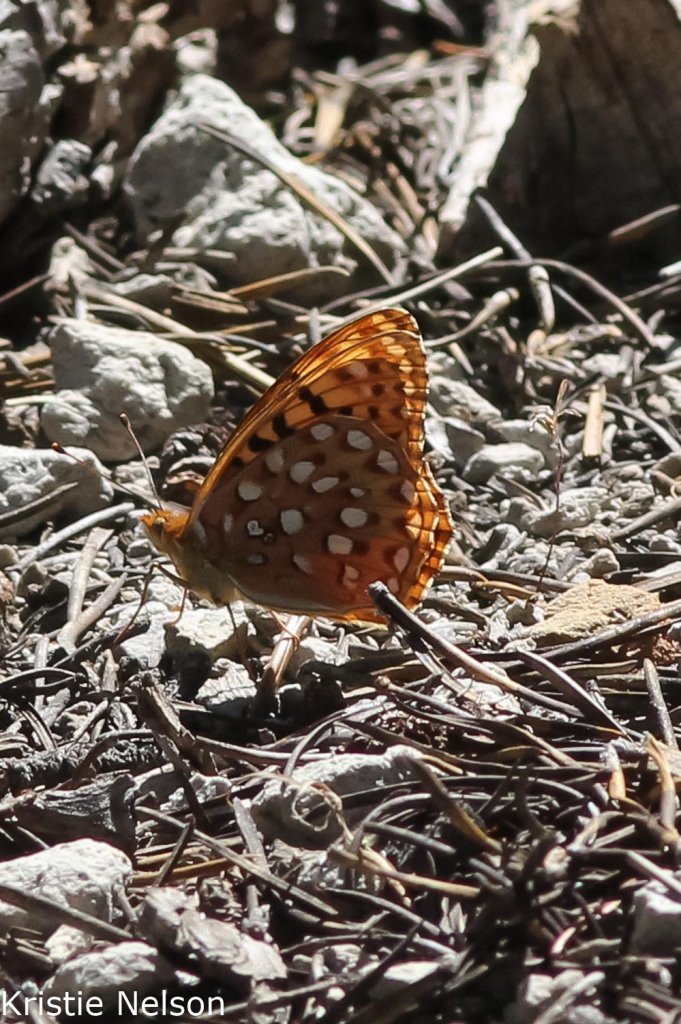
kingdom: Animalia
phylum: Arthropoda
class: Insecta
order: Lepidoptera
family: Nymphalidae
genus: Speyeria
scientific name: Speyeria zerene
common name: Zerene Fritillary
